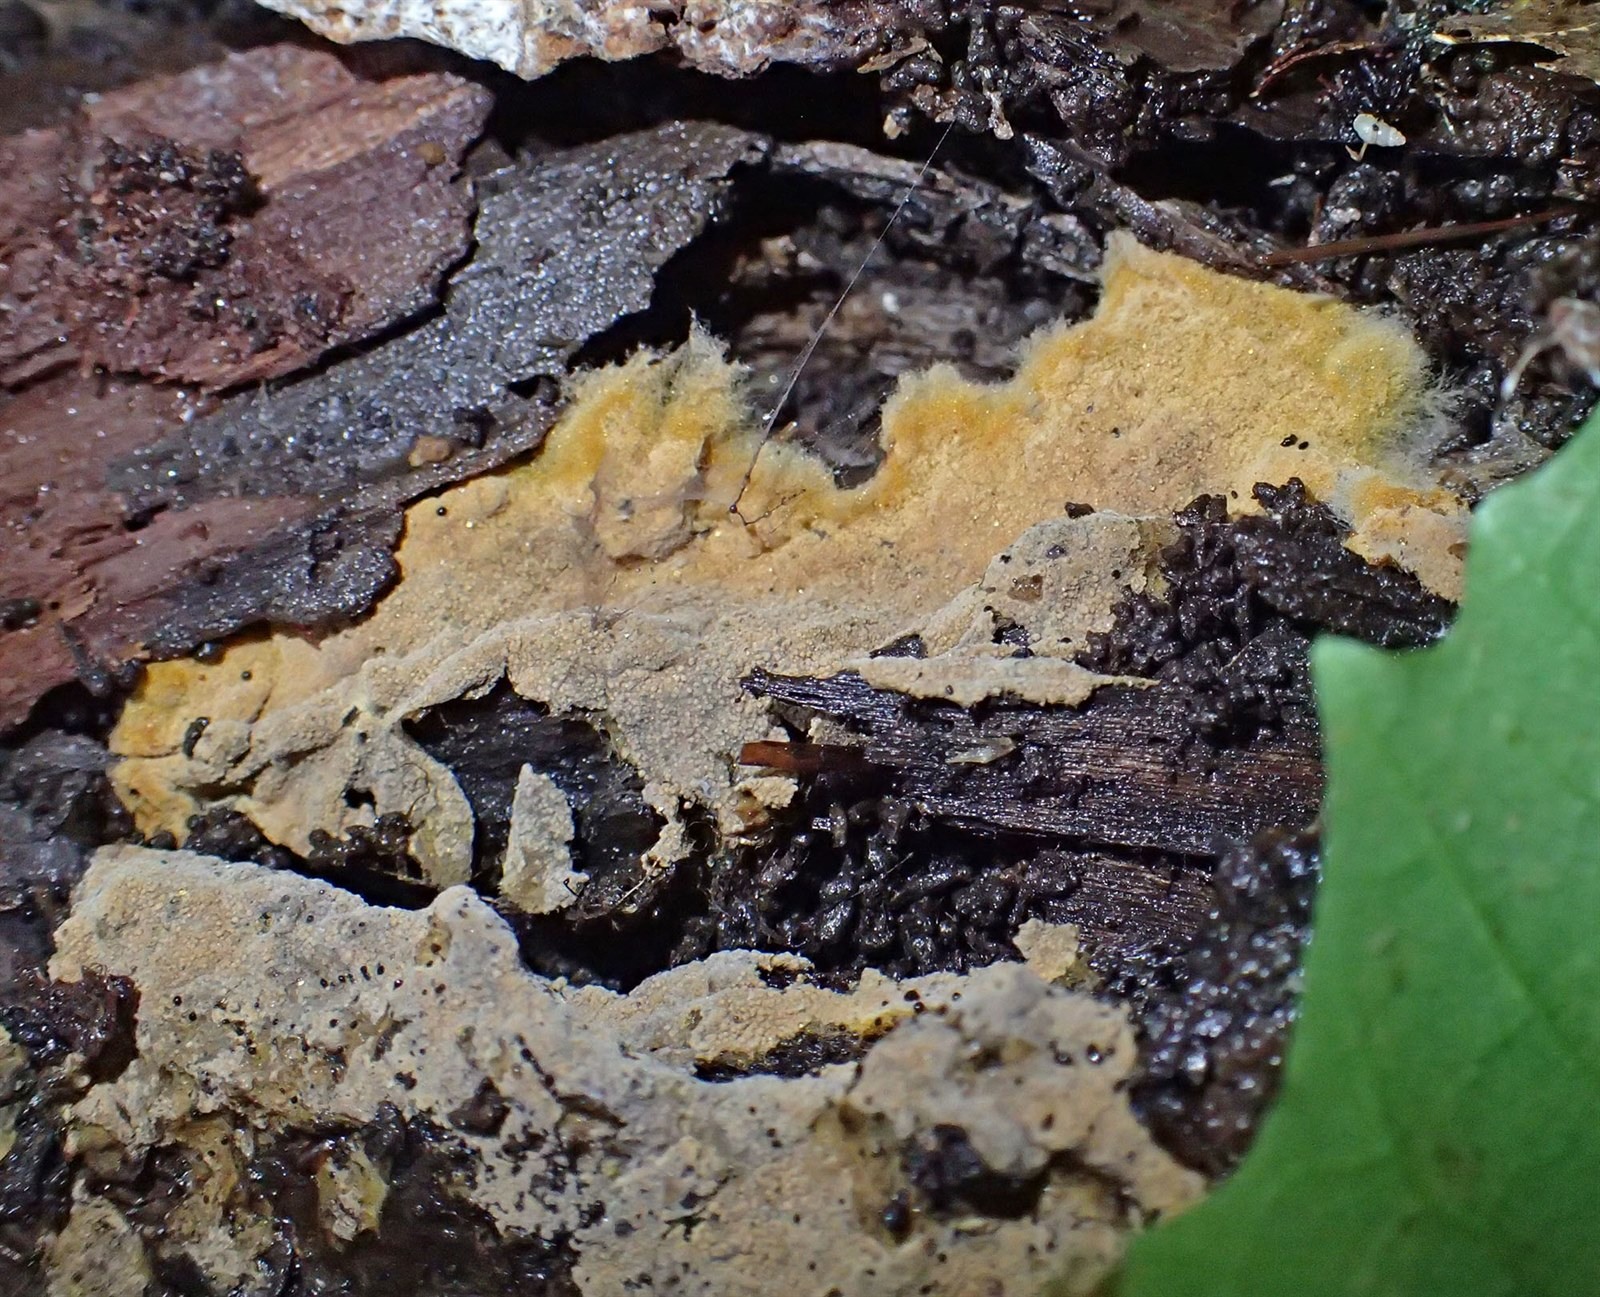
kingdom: Fungi
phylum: Basidiomycota
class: Agaricomycetes
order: Thelephorales
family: Thelephoraceae
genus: Tomentella
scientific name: Tomentella
